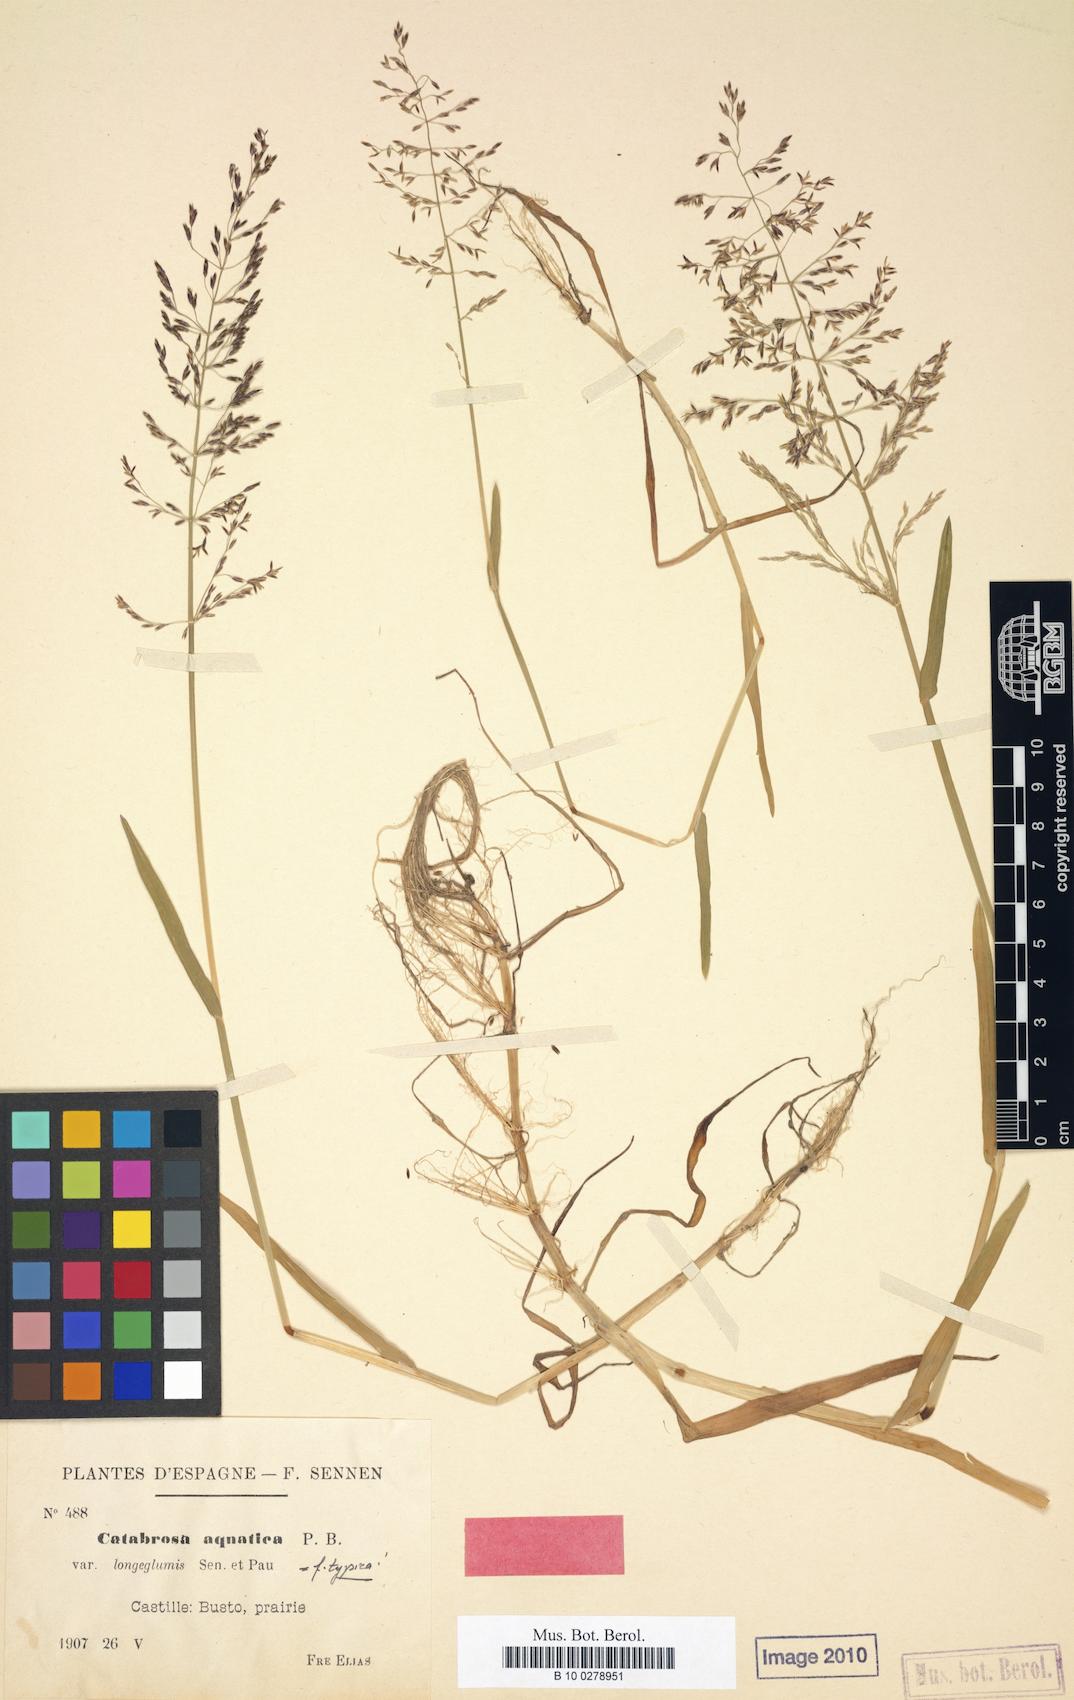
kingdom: Plantae
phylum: Tracheophyta
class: Liliopsida
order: Poales
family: Poaceae
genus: Catabrosa
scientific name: Catabrosa aquatica
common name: Whorl-grass
